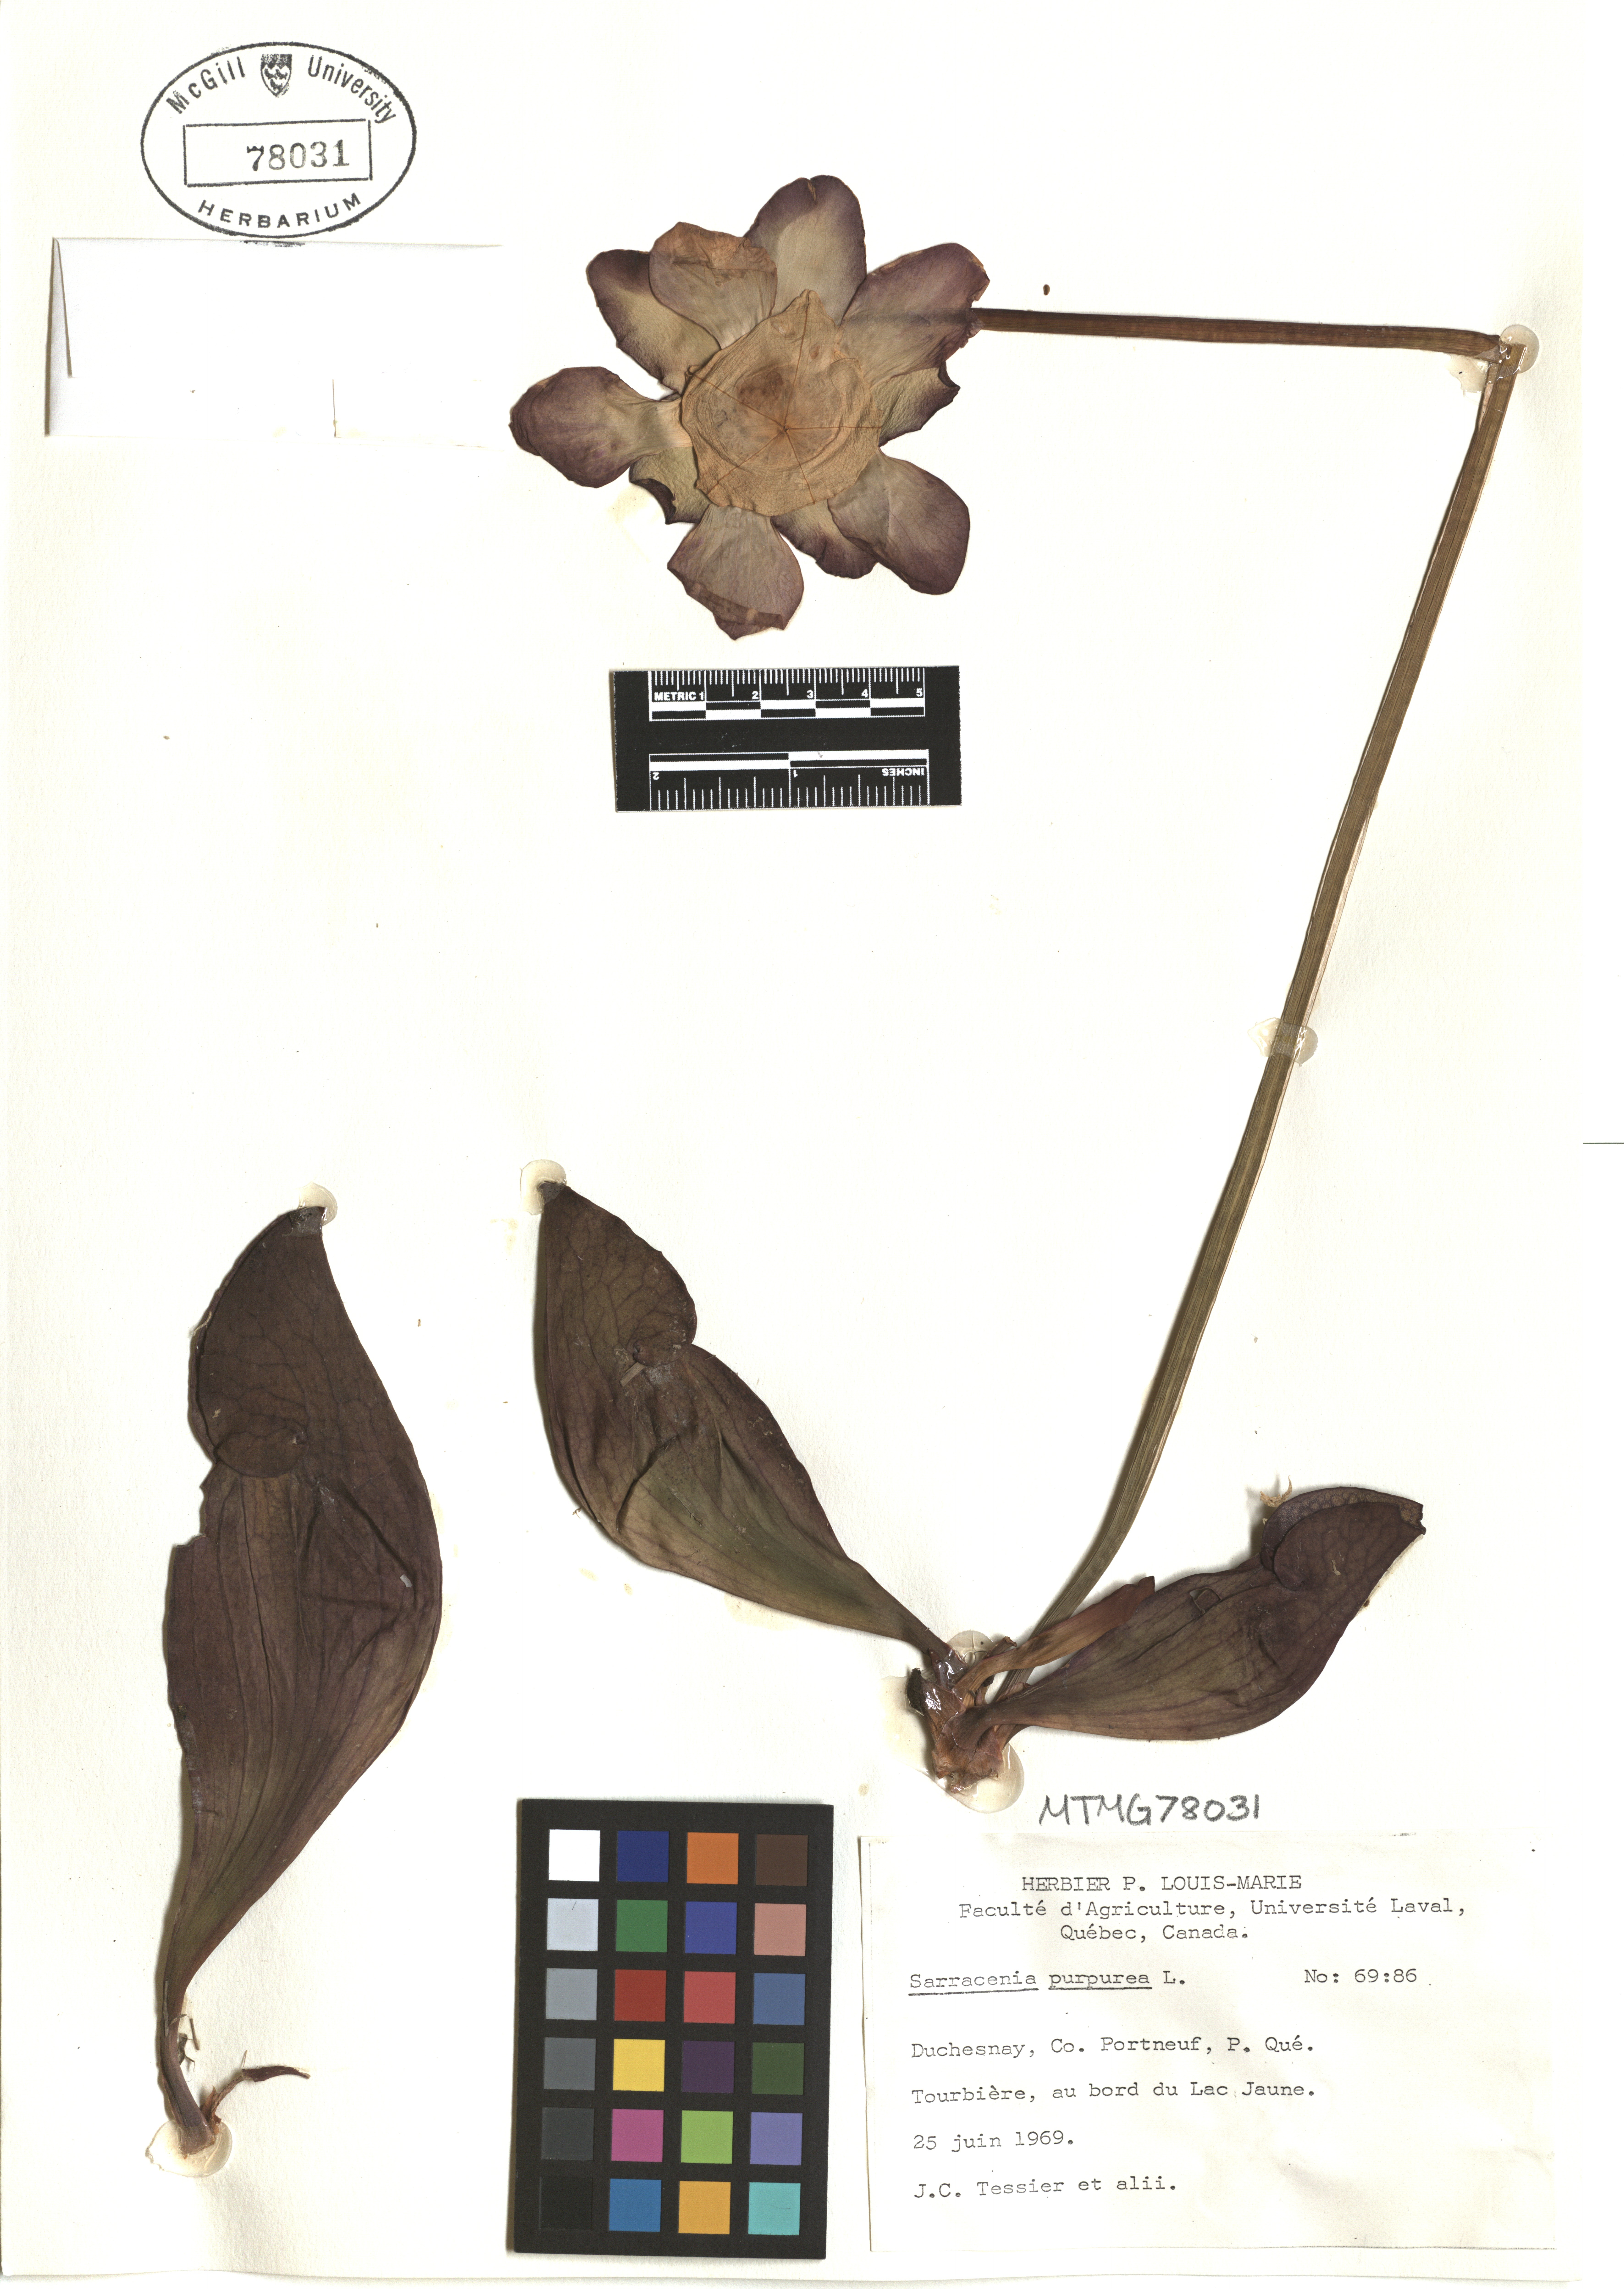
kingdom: Plantae
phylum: Tracheophyta
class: Magnoliopsida
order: Ericales
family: Sarraceniaceae
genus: Sarracenia
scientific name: Sarracenia purpurea
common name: Pitcherplant
